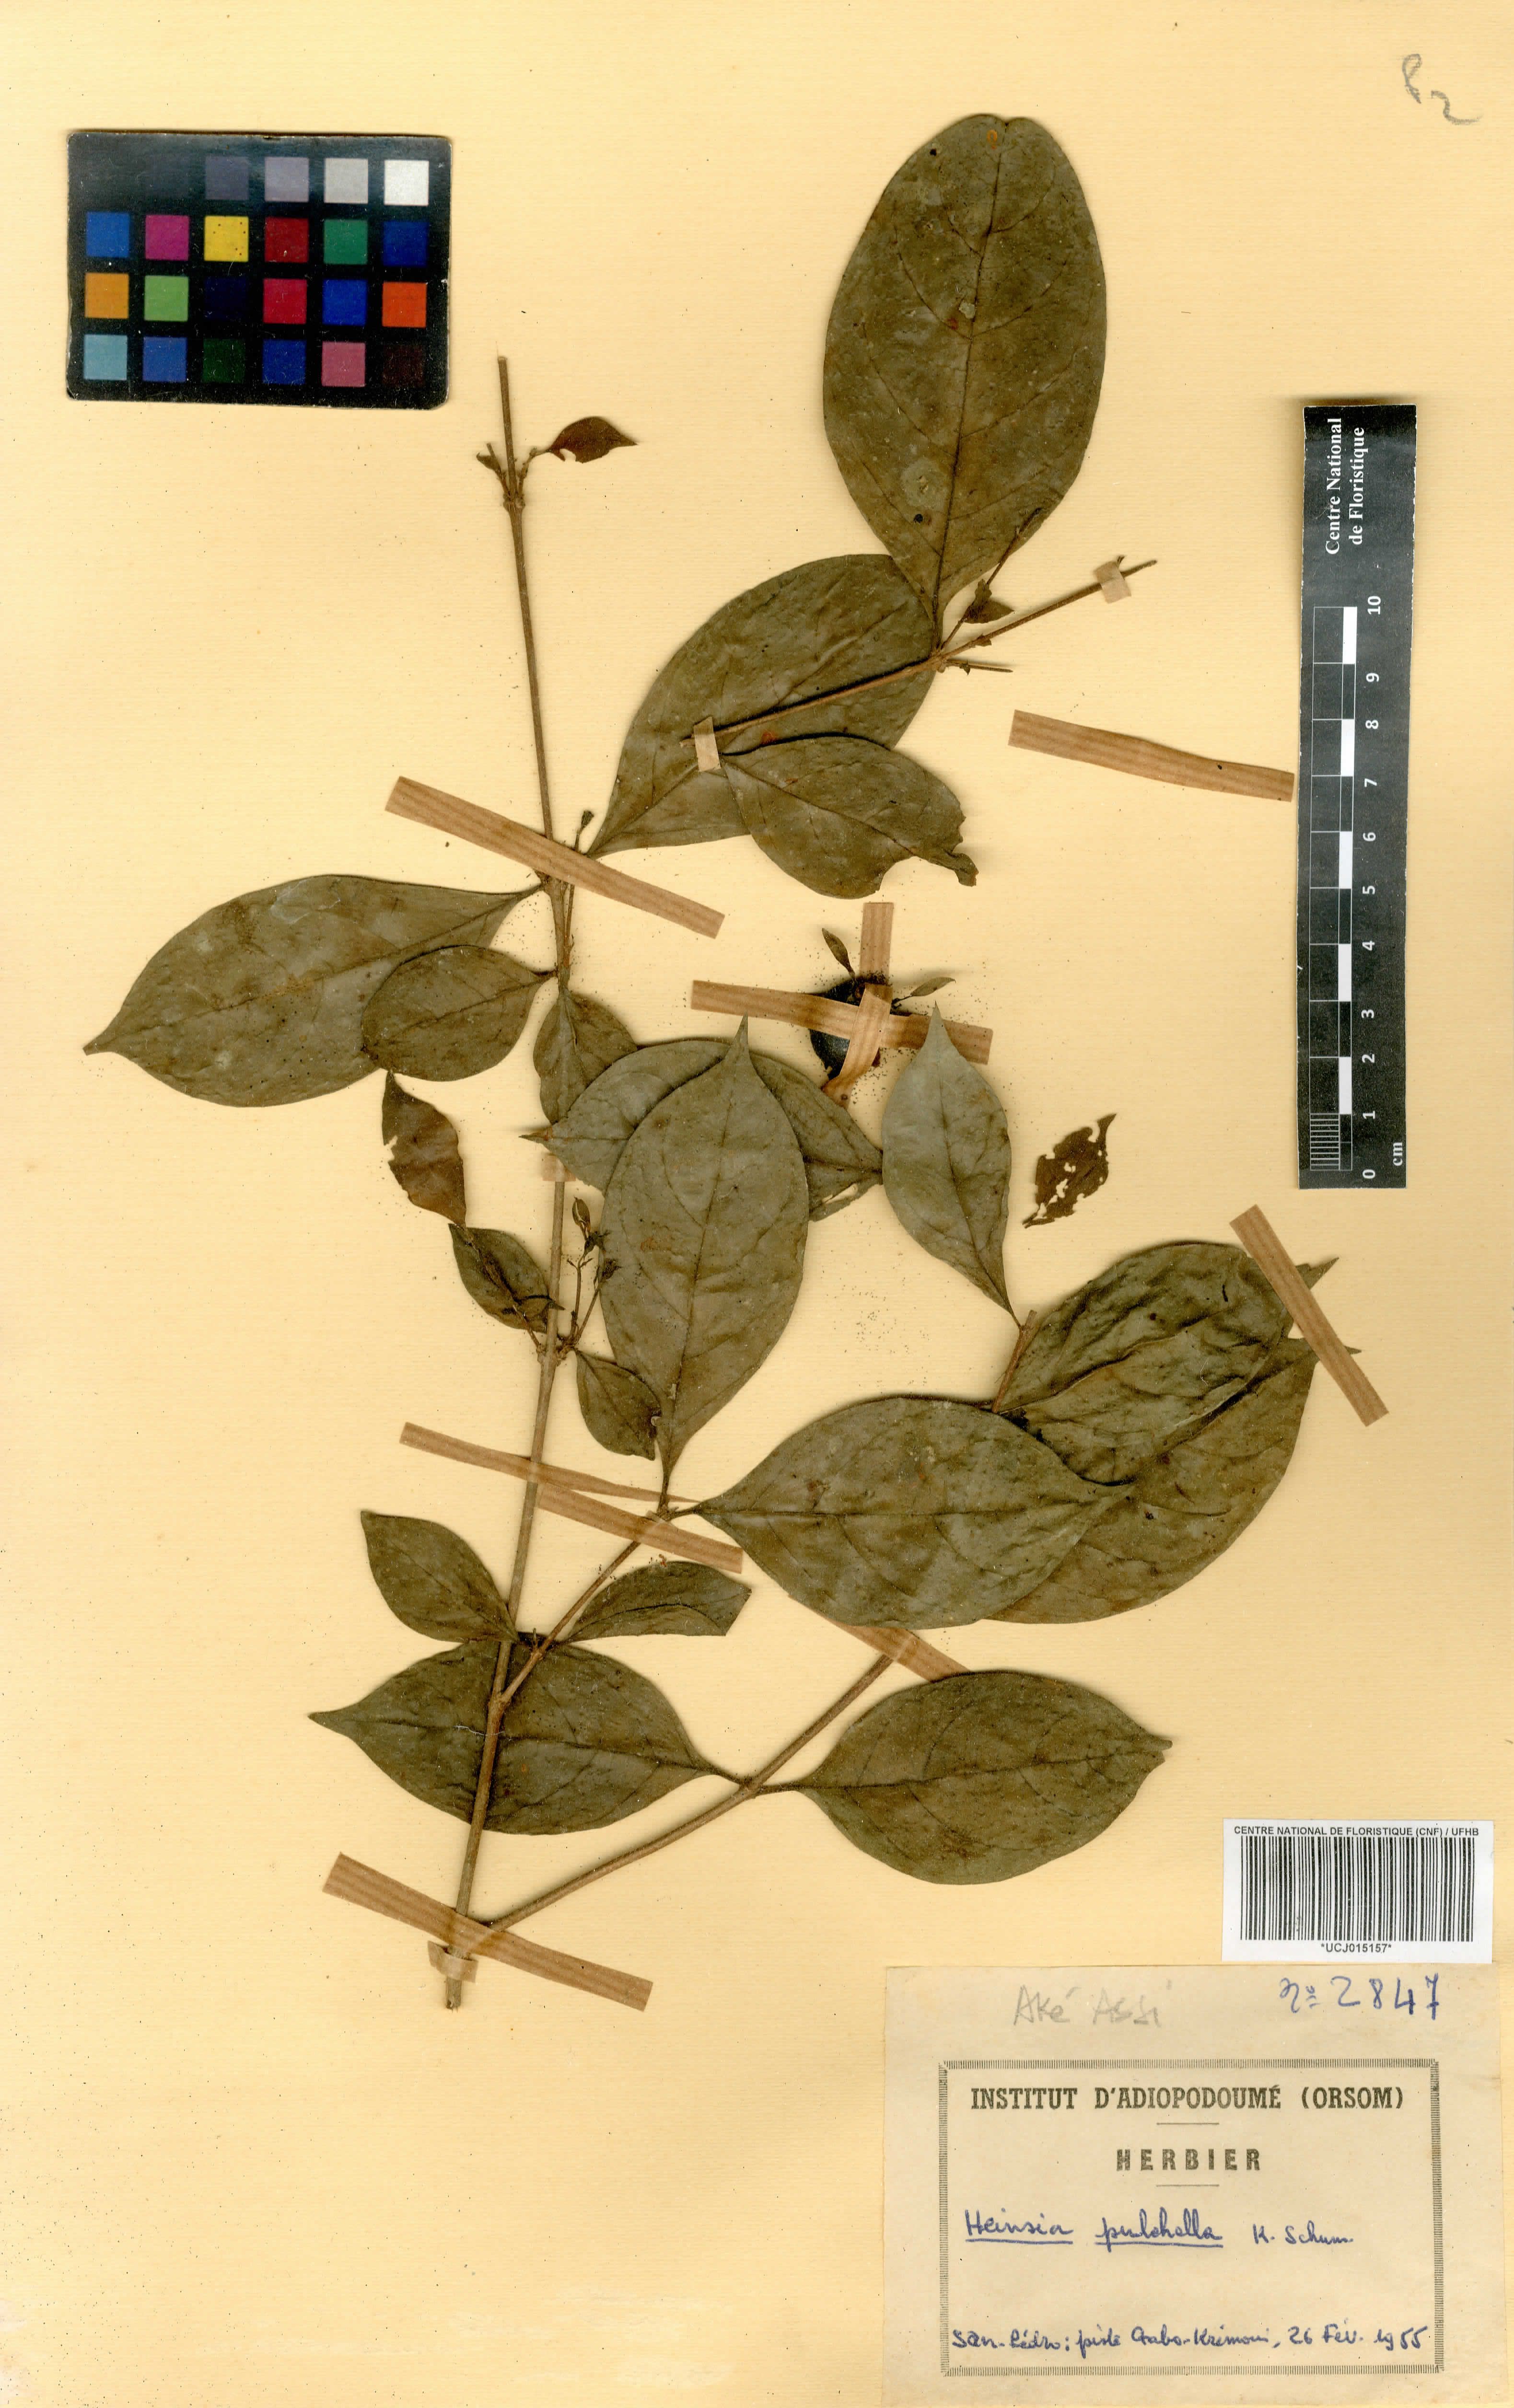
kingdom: Plantae
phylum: Tracheophyta
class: Magnoliopsida
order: Gentianales
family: Rubiaceae
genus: Heinsia
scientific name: Heinsia crinita
